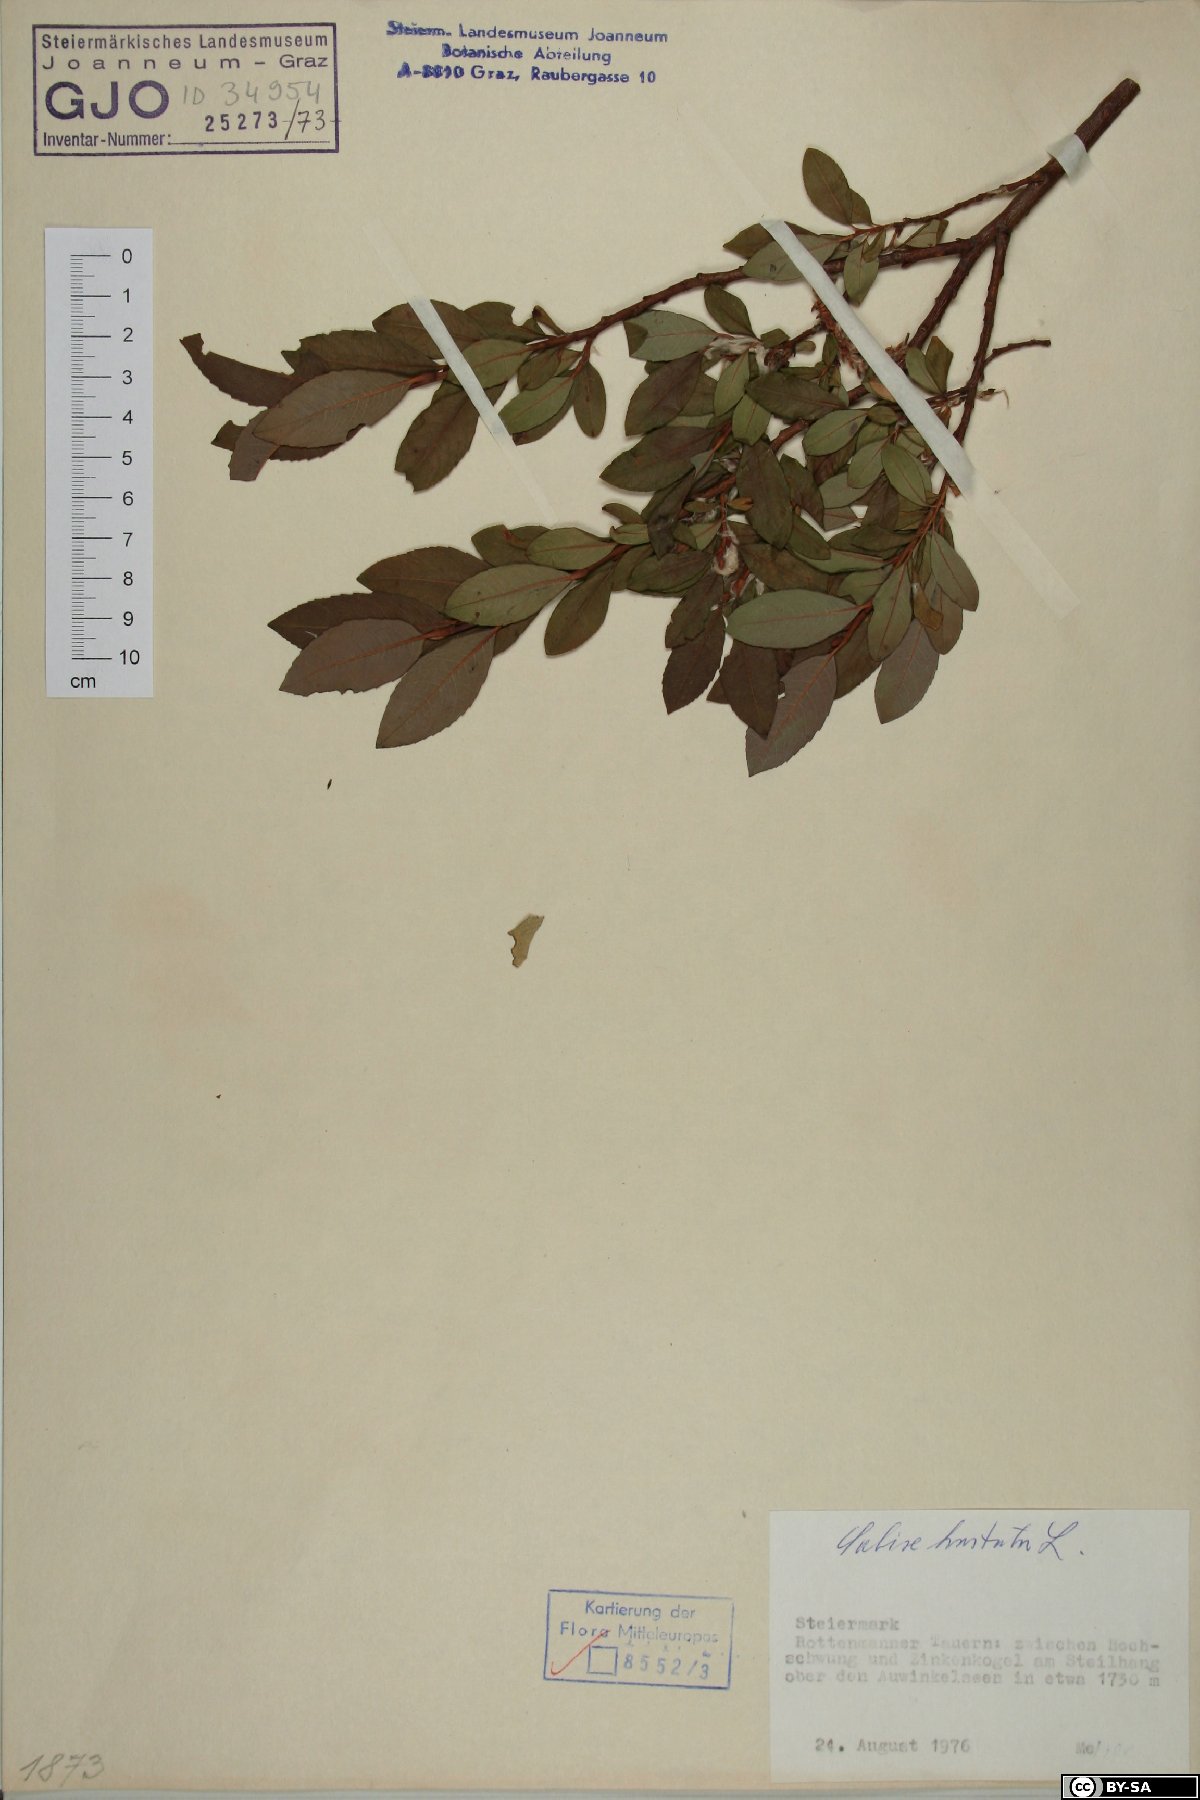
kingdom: Plantae
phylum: Tracheophyta
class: Magnoliopsida
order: Malpighiales
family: Salicaceae
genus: Salix
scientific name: Salix hastata
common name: Halberd willow
